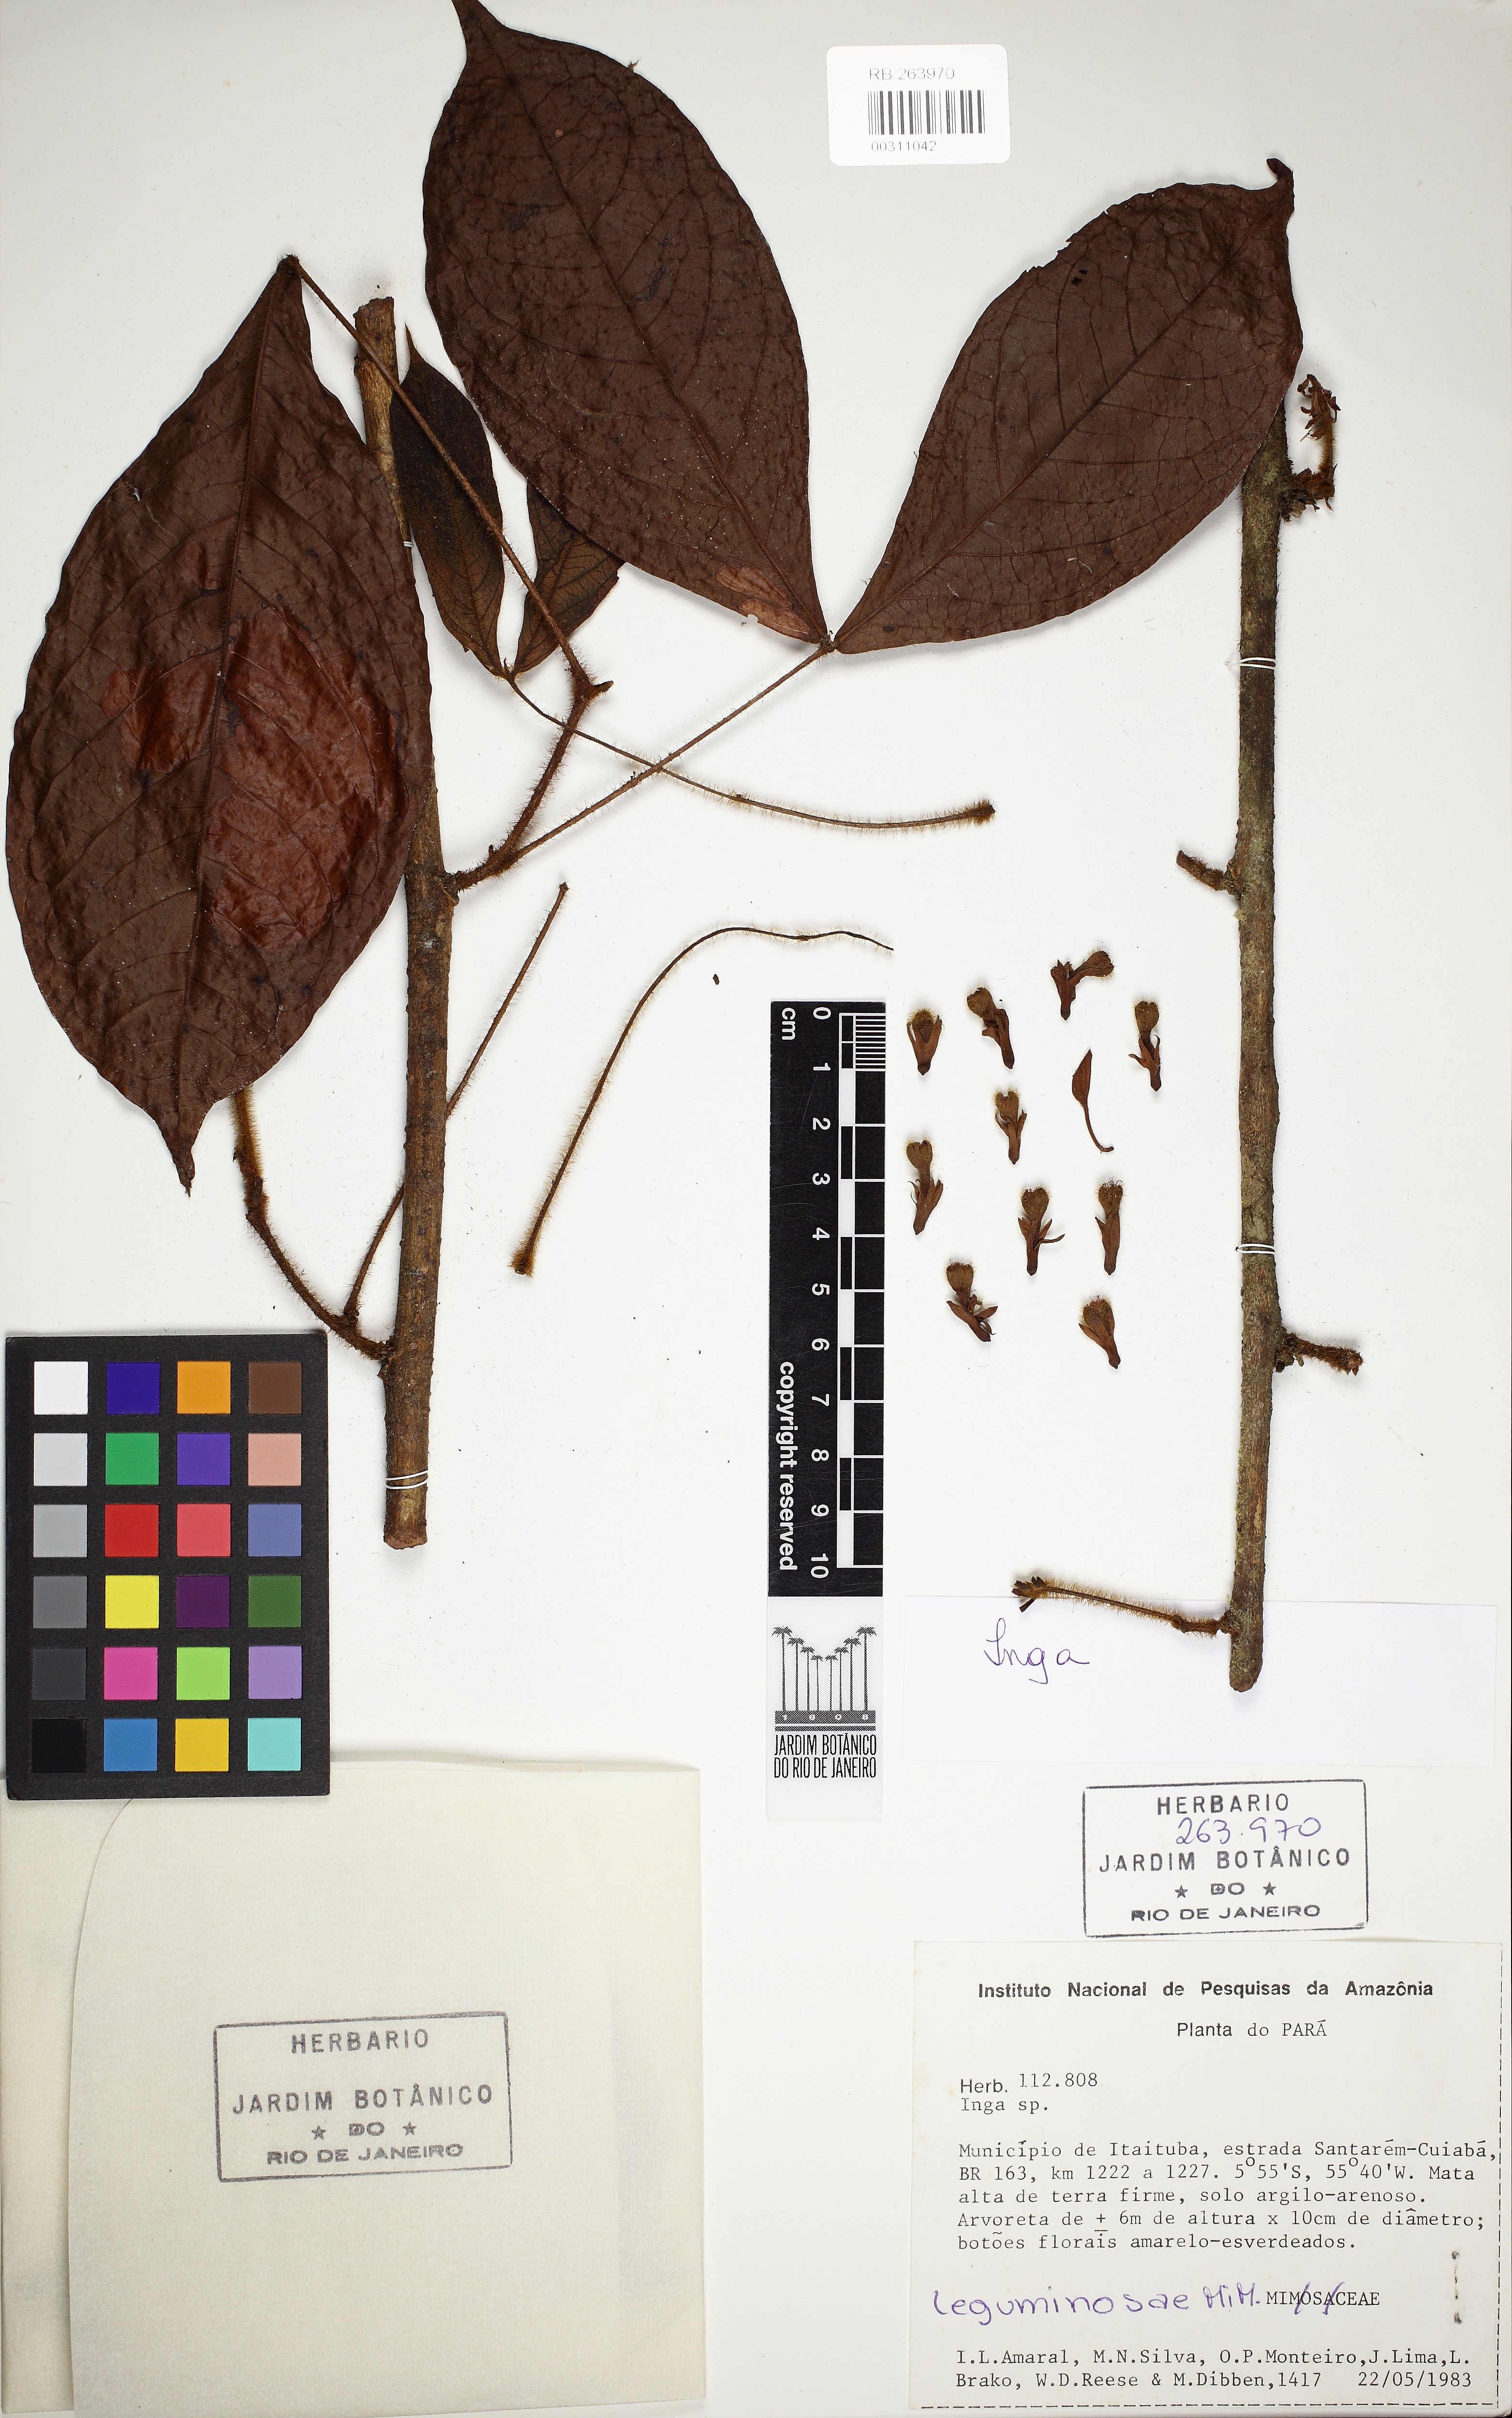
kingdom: Plantae
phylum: Tracheophyta
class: Magnoliopsida
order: Fabales
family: Fabaceae
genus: Inga
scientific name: Inga stipulacea
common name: Stipulate inga
